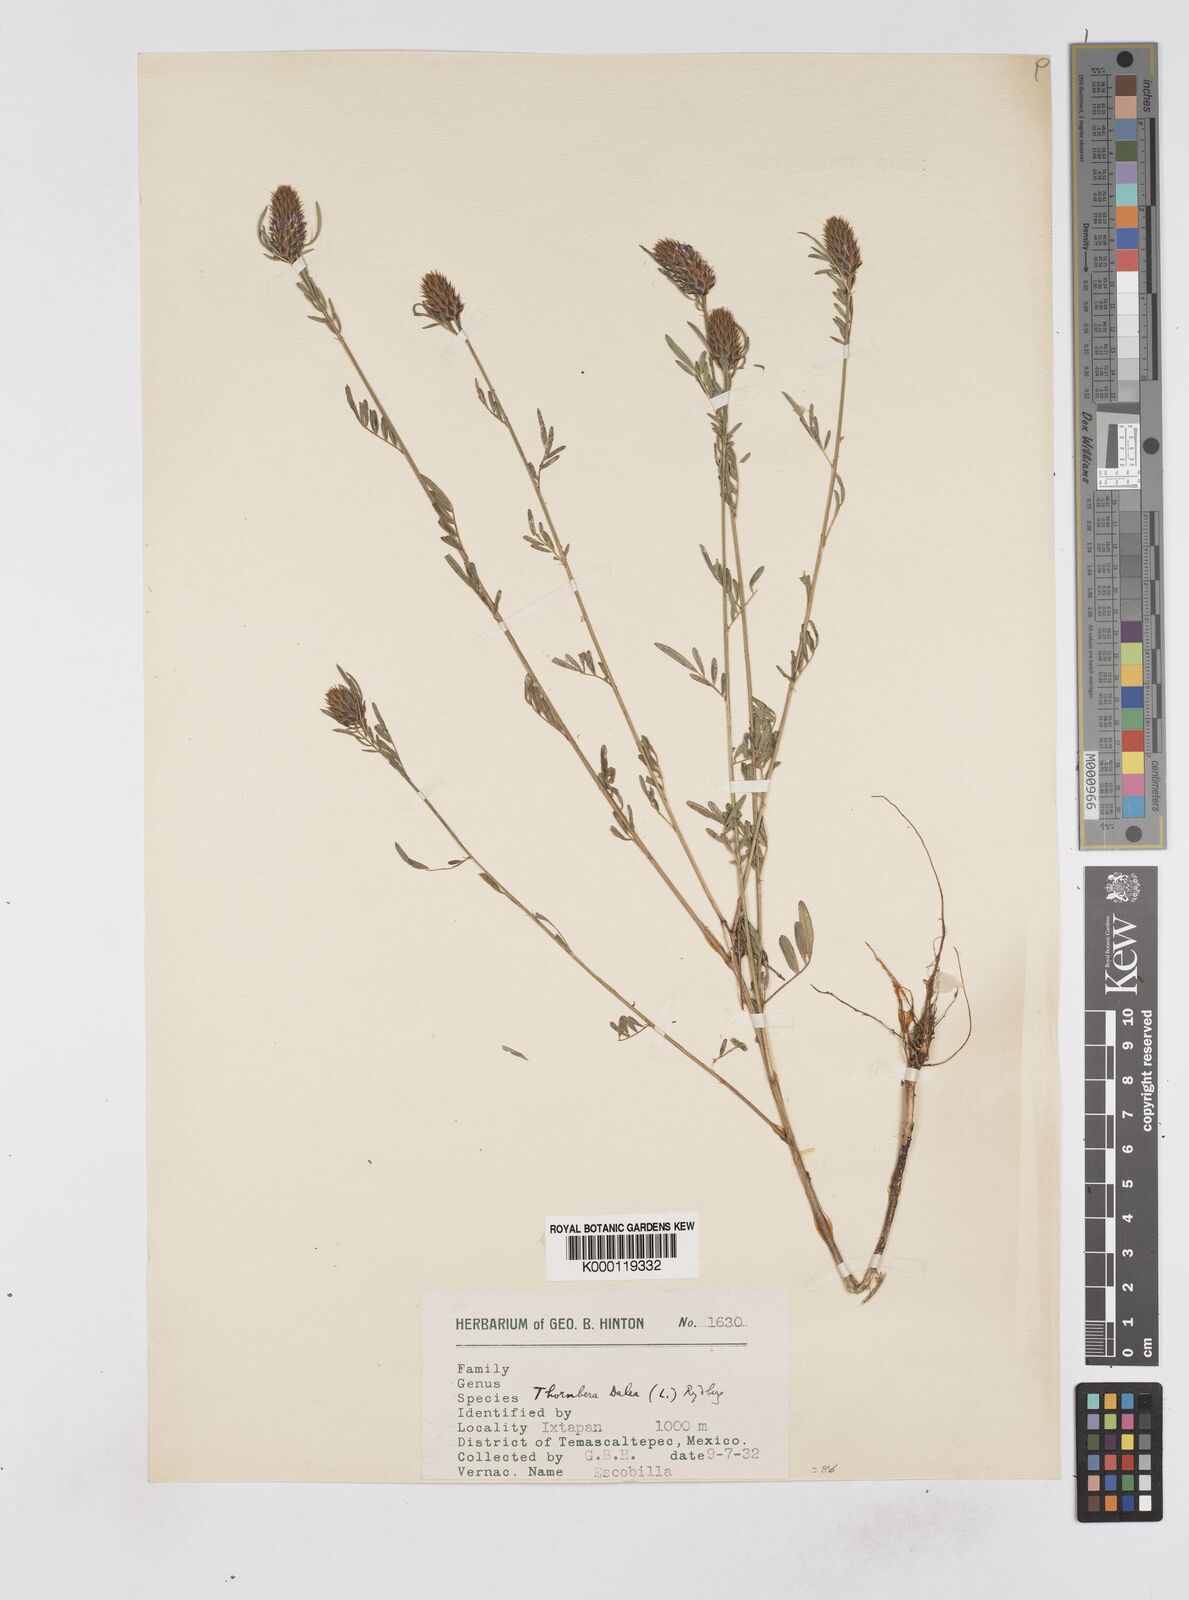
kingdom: Plantae
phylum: Tracheophyta
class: Magnoliopsida
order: Fabales
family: Fabaceae
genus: Dalea
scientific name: Dalea cliffortiana
